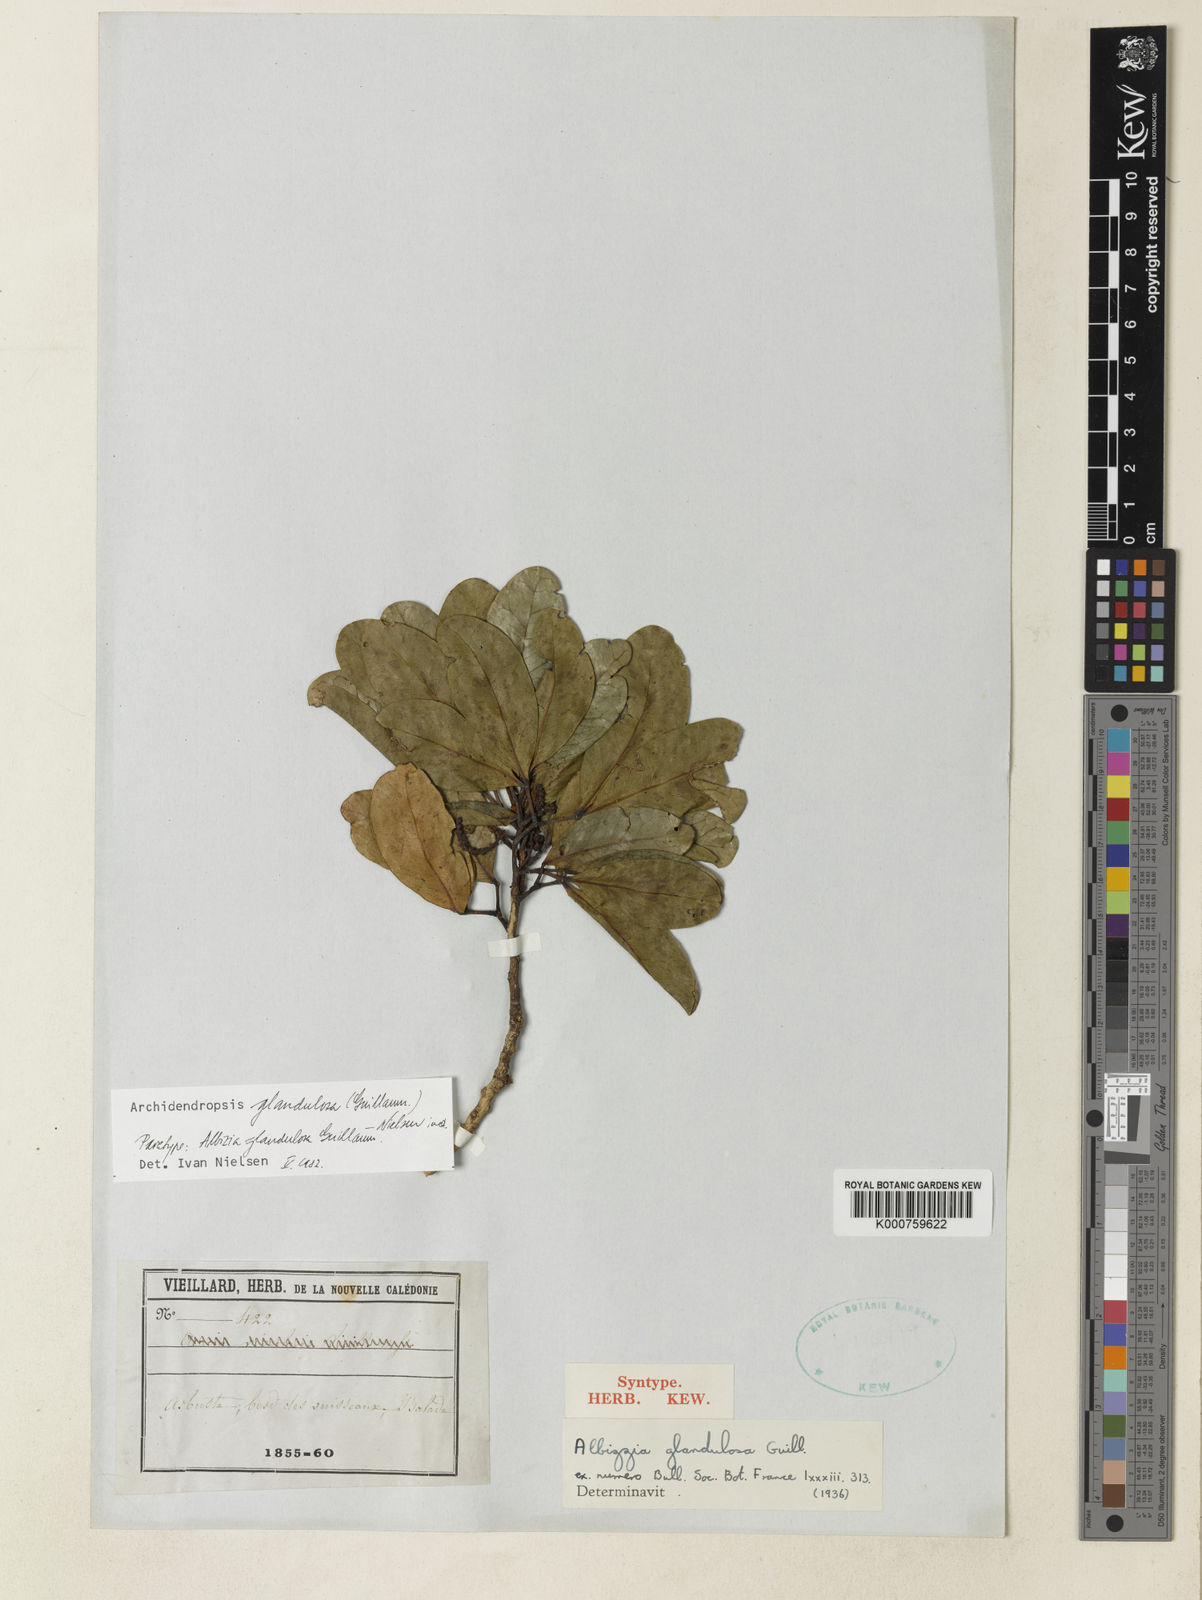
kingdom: Plantae
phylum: Tracheophyta
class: Magnoliopsida
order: Fabales
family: Fabaceae
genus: Archidendropsis
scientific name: Archidendropsis glandulosa
